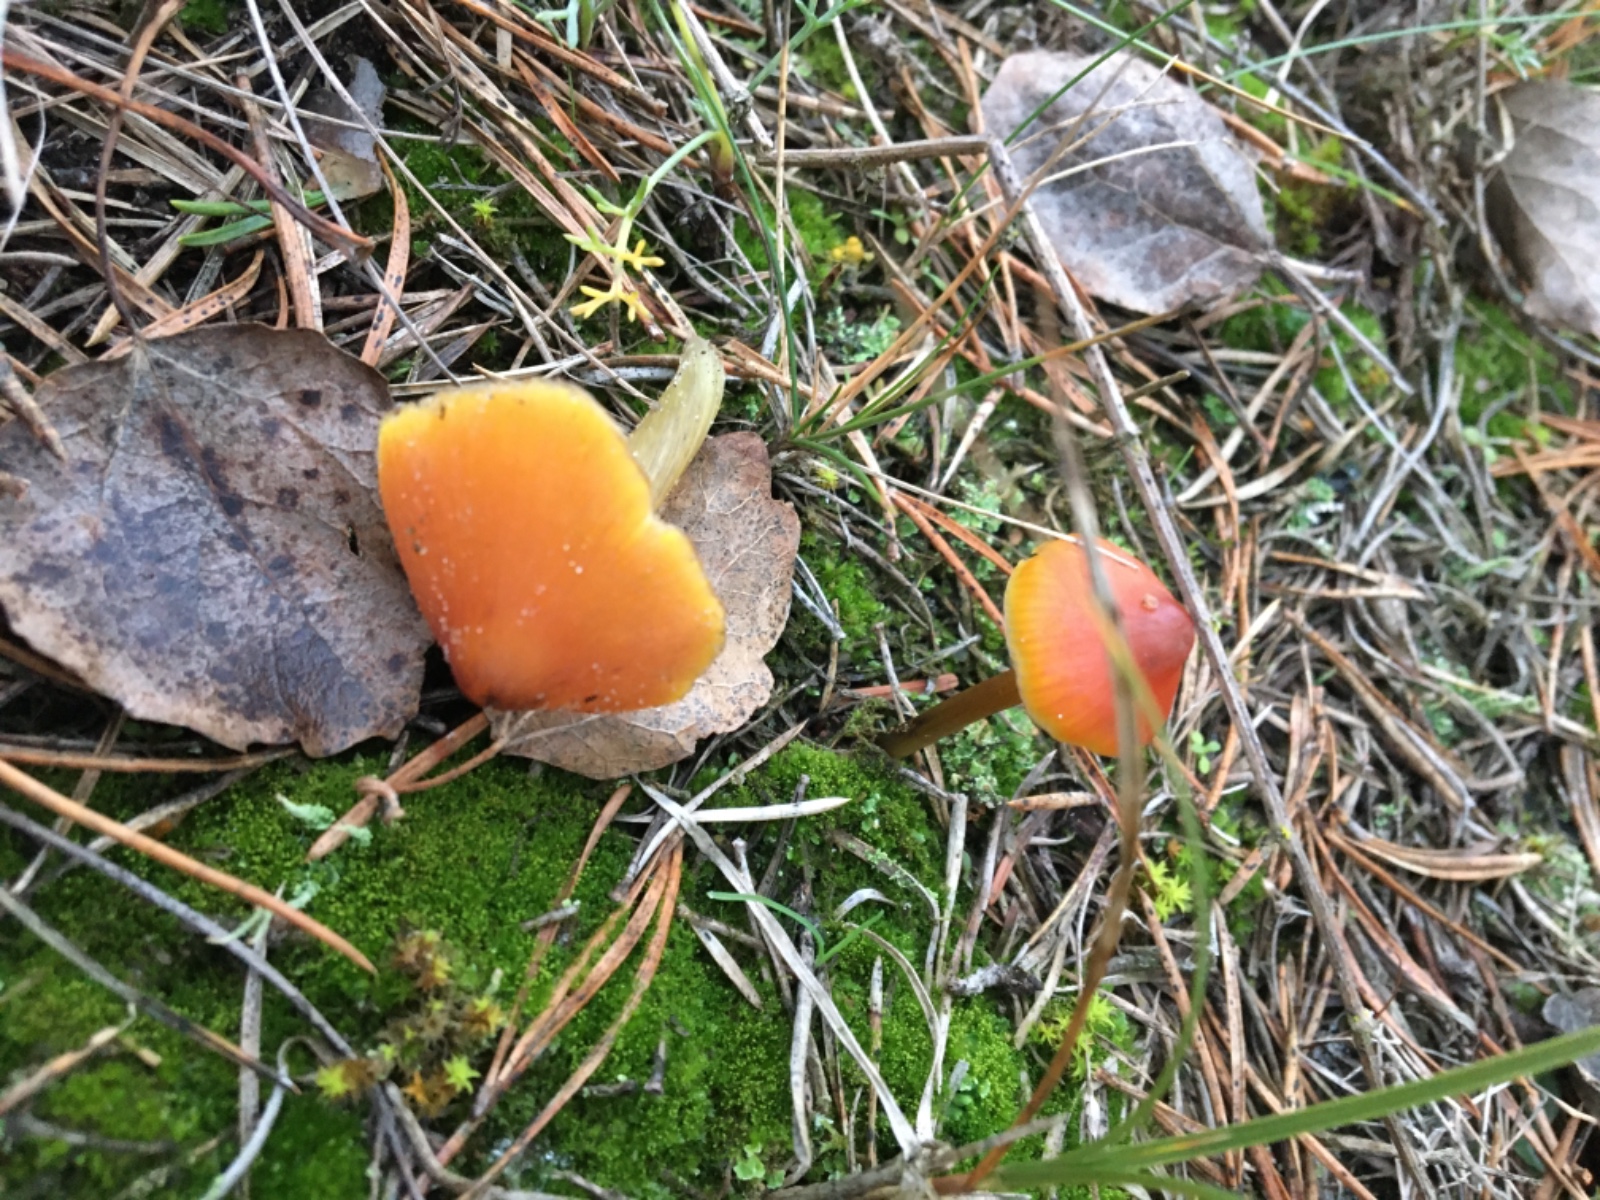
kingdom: Fungi
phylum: Basidiomycota
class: Agaricomycetes
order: Agaricales
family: Hygrophoraceae
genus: Hygrocybe
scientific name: Hygrocybe conica
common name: kegle-vokshat
